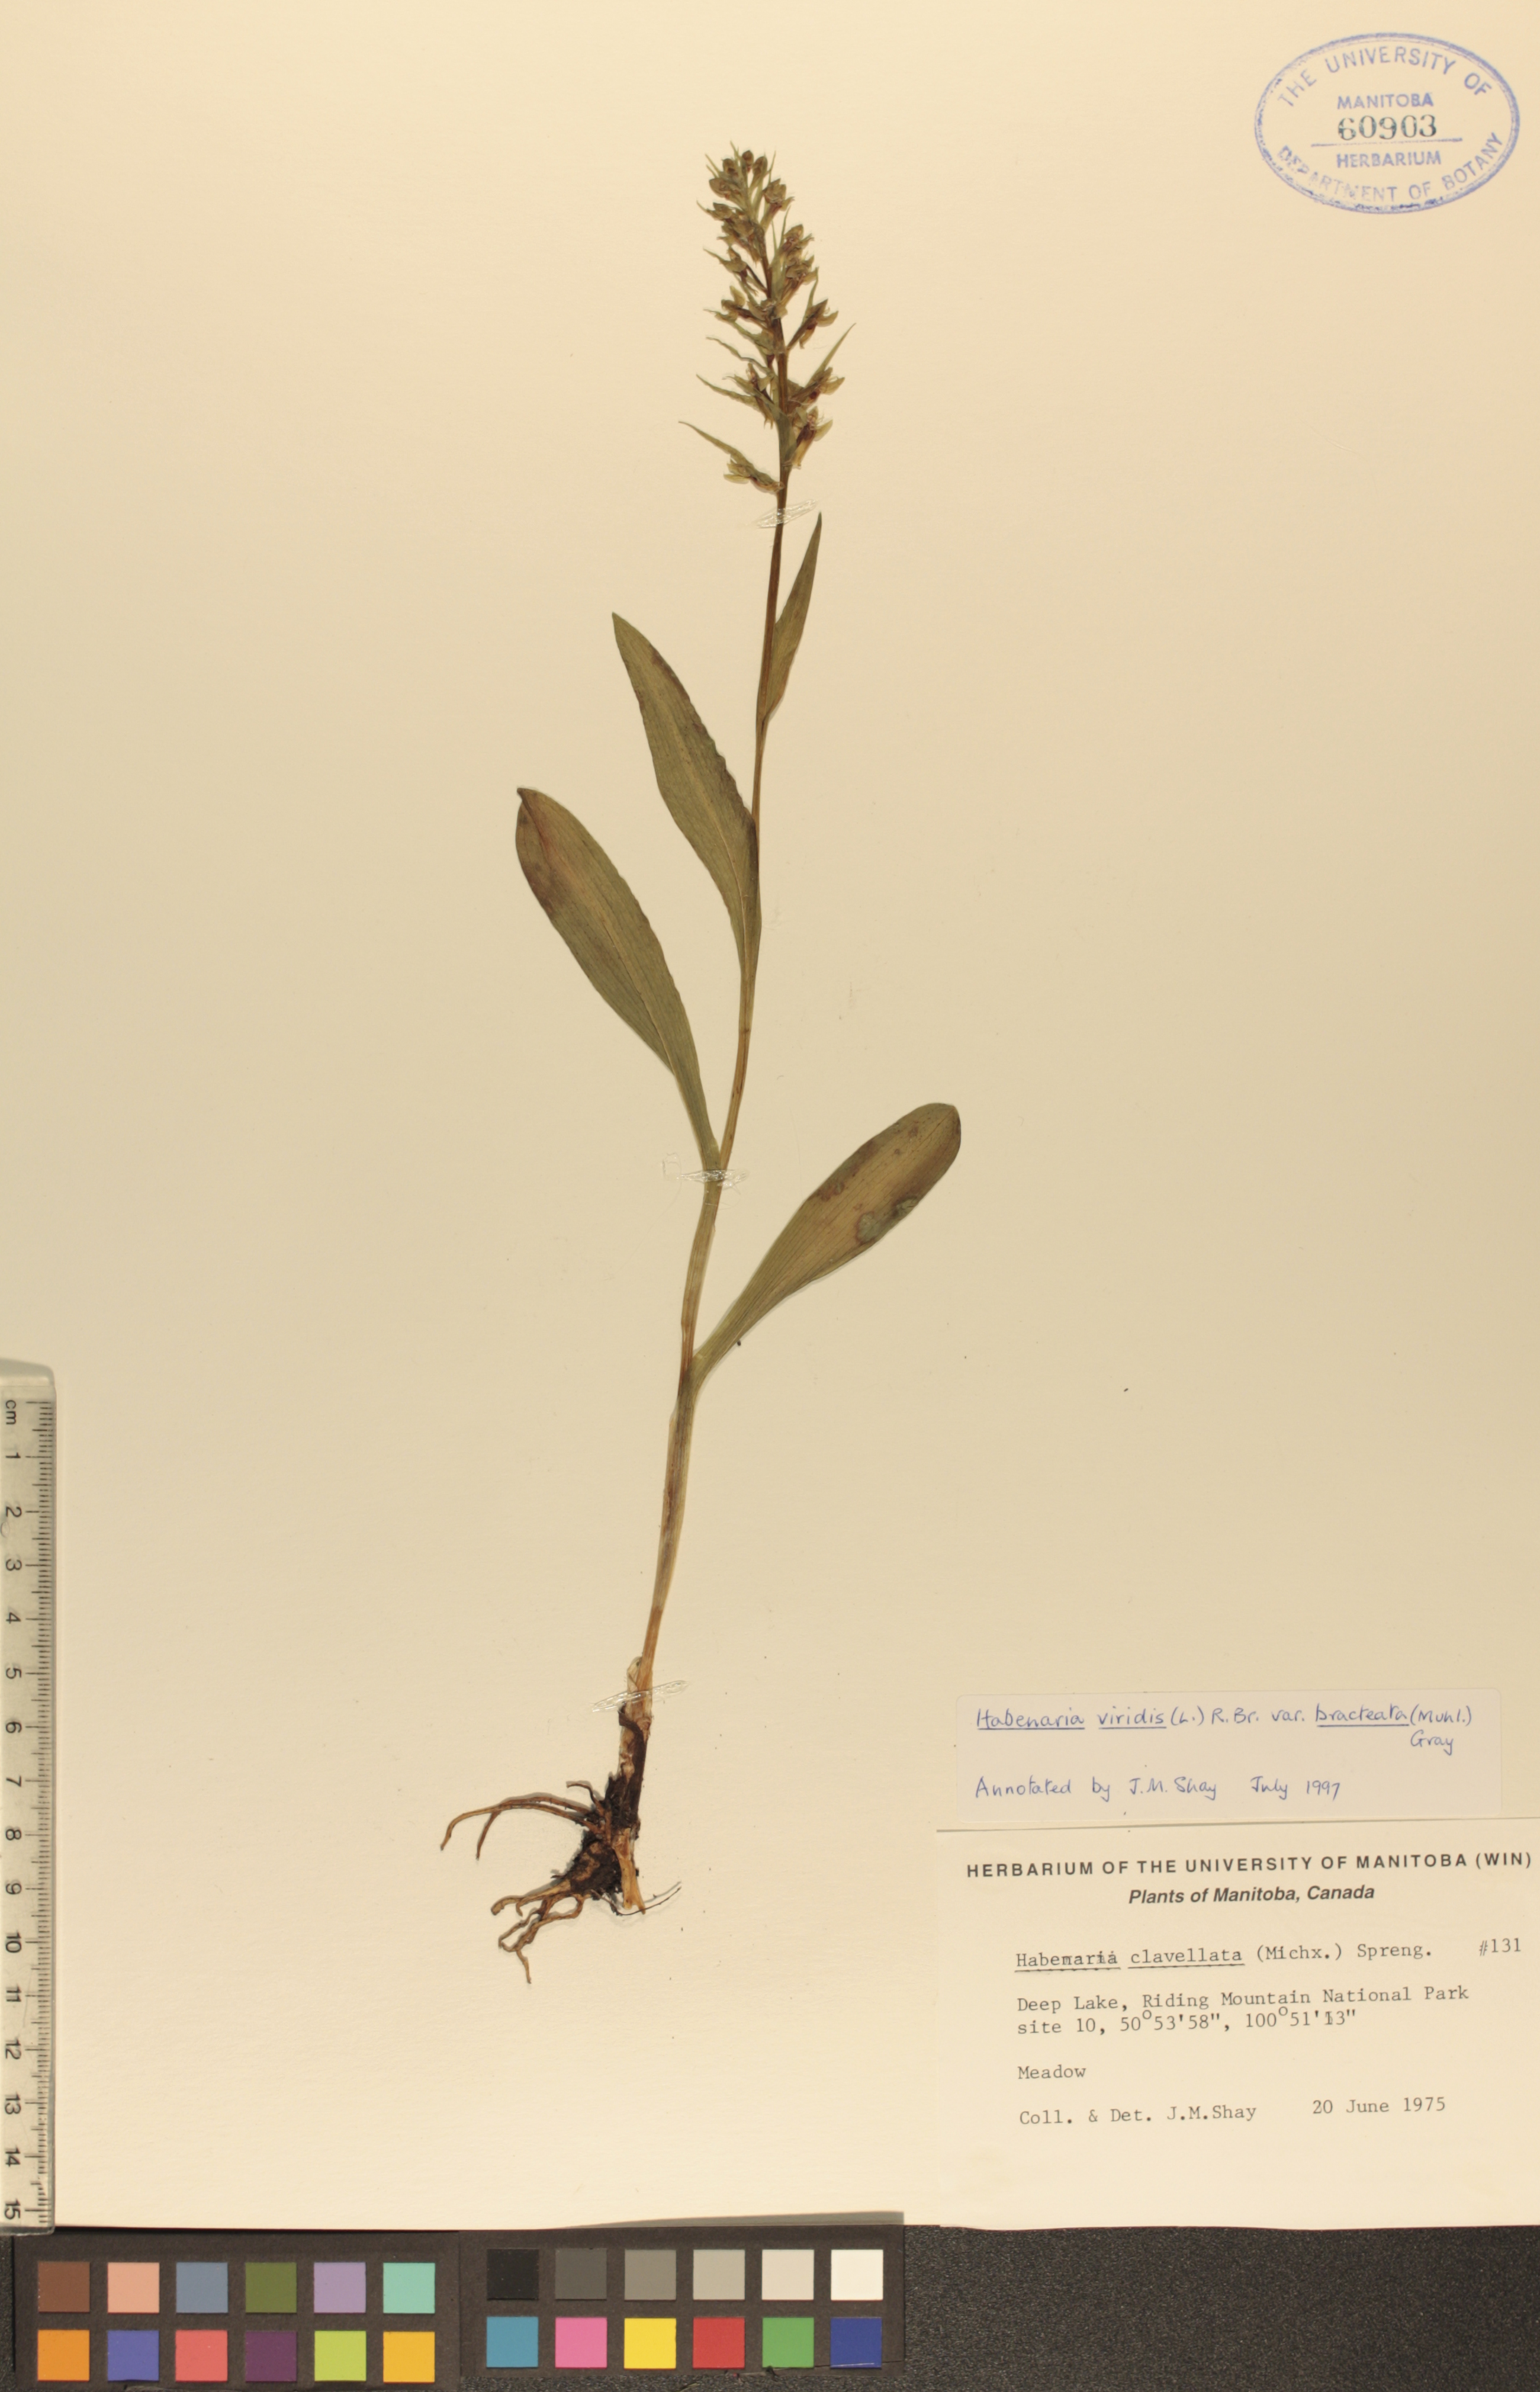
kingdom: Plantae
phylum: Tracheophyta
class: Liliopsida
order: Asparagales
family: Orchidaceae
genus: Dactylorhiza
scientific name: Dactylorhiza viridis
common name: Longbract frog orchid
